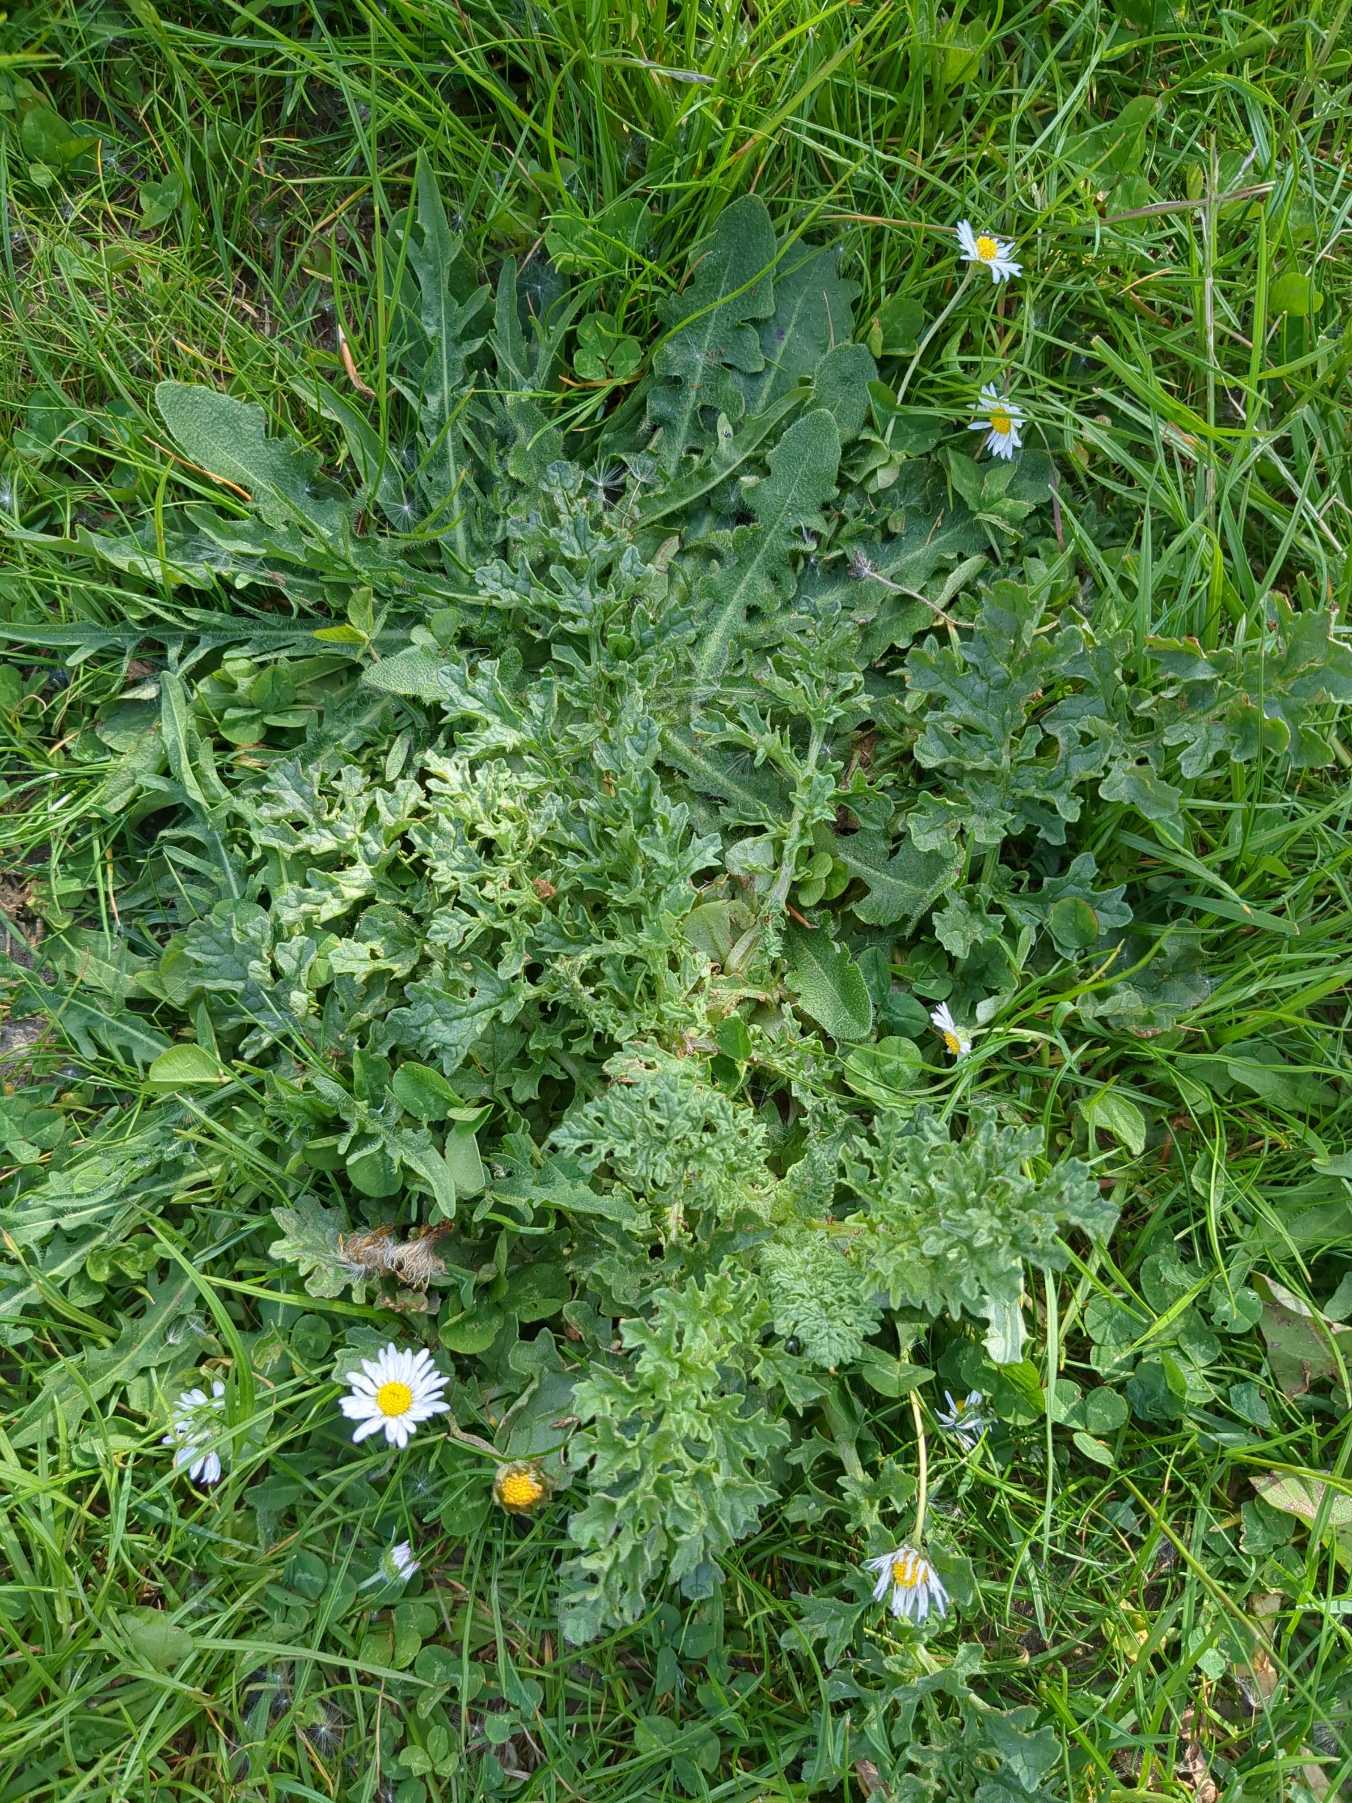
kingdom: Plantae
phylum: Tracheophyta
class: Magnoliopsida
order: Asterales
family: Asteraceae
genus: Jacobaea
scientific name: Jacobaea vulgaris
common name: Eng-brandbæger
